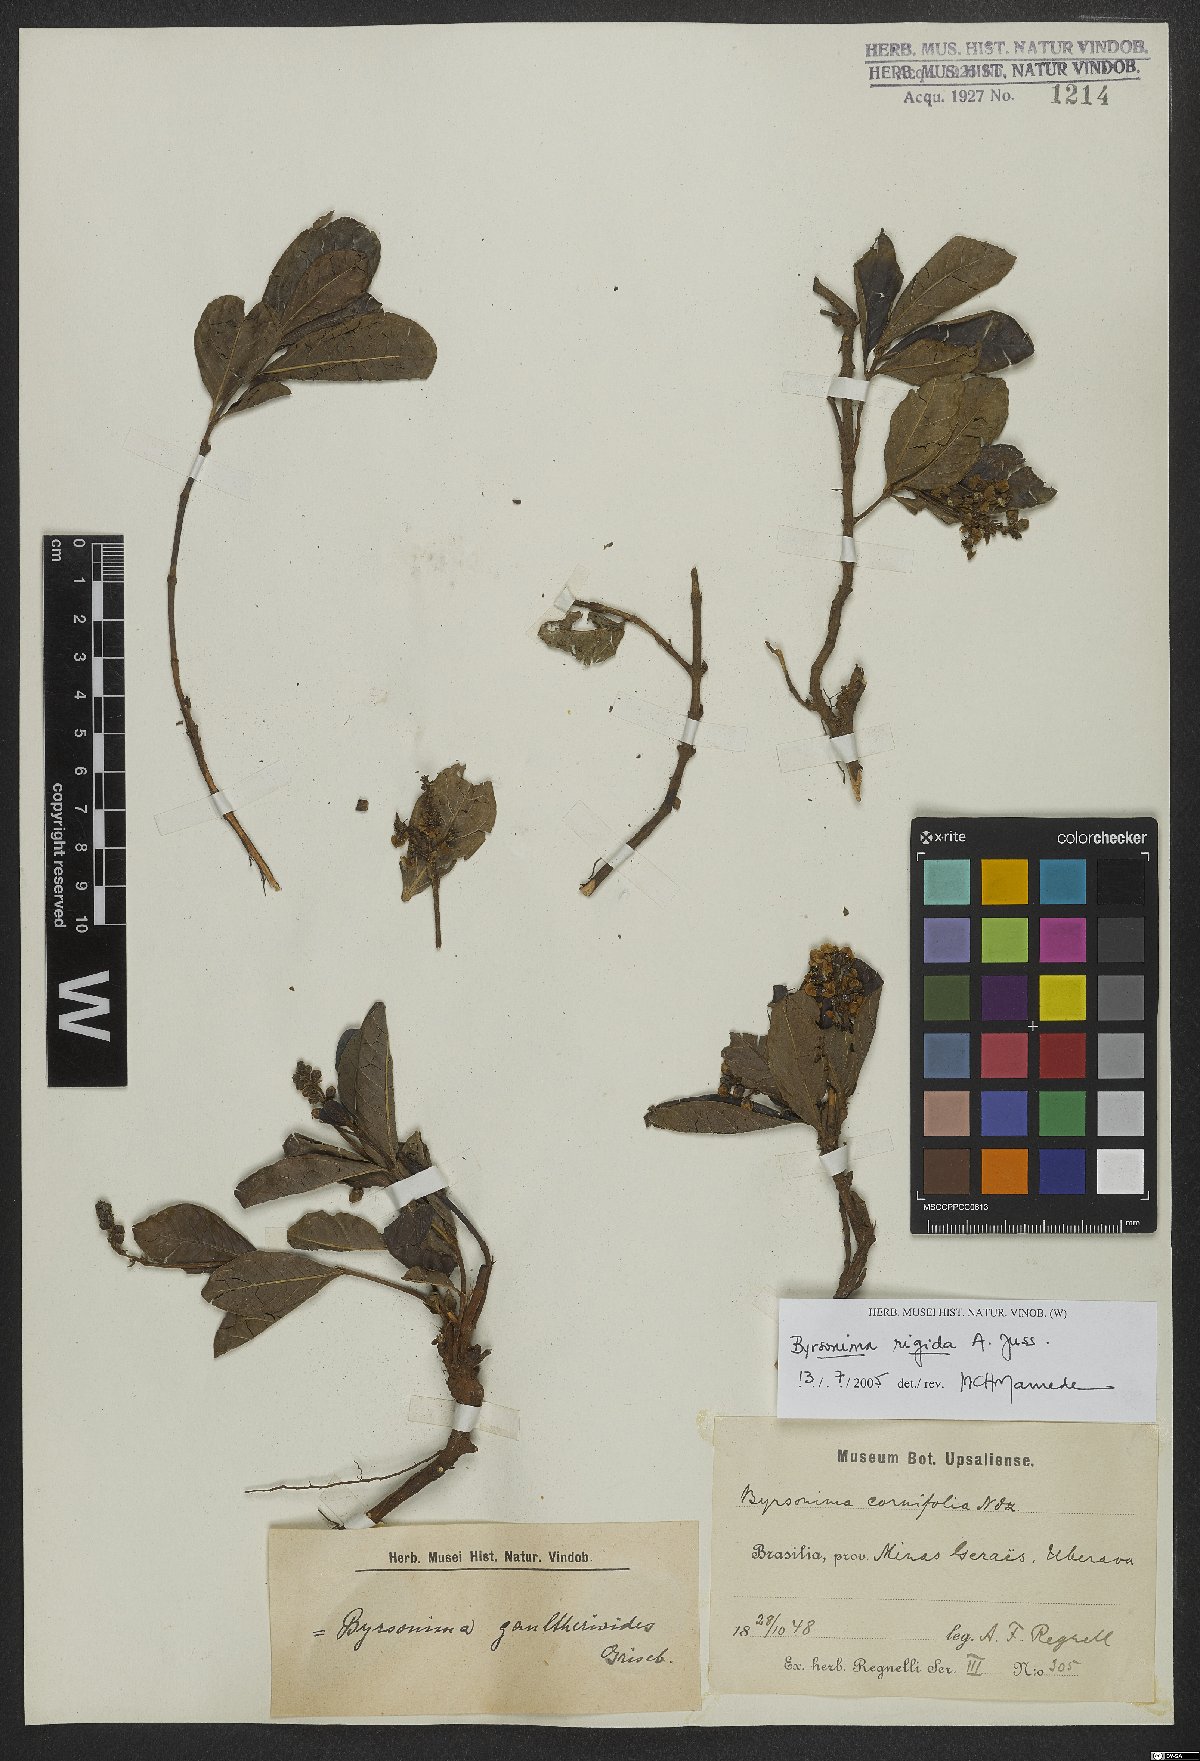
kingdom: Plantae
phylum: Tracheophyta
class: Magnoliopsida
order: Malpighiales
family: Malpighiaceae
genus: Byrsonima
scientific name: Byrsonima rigida
